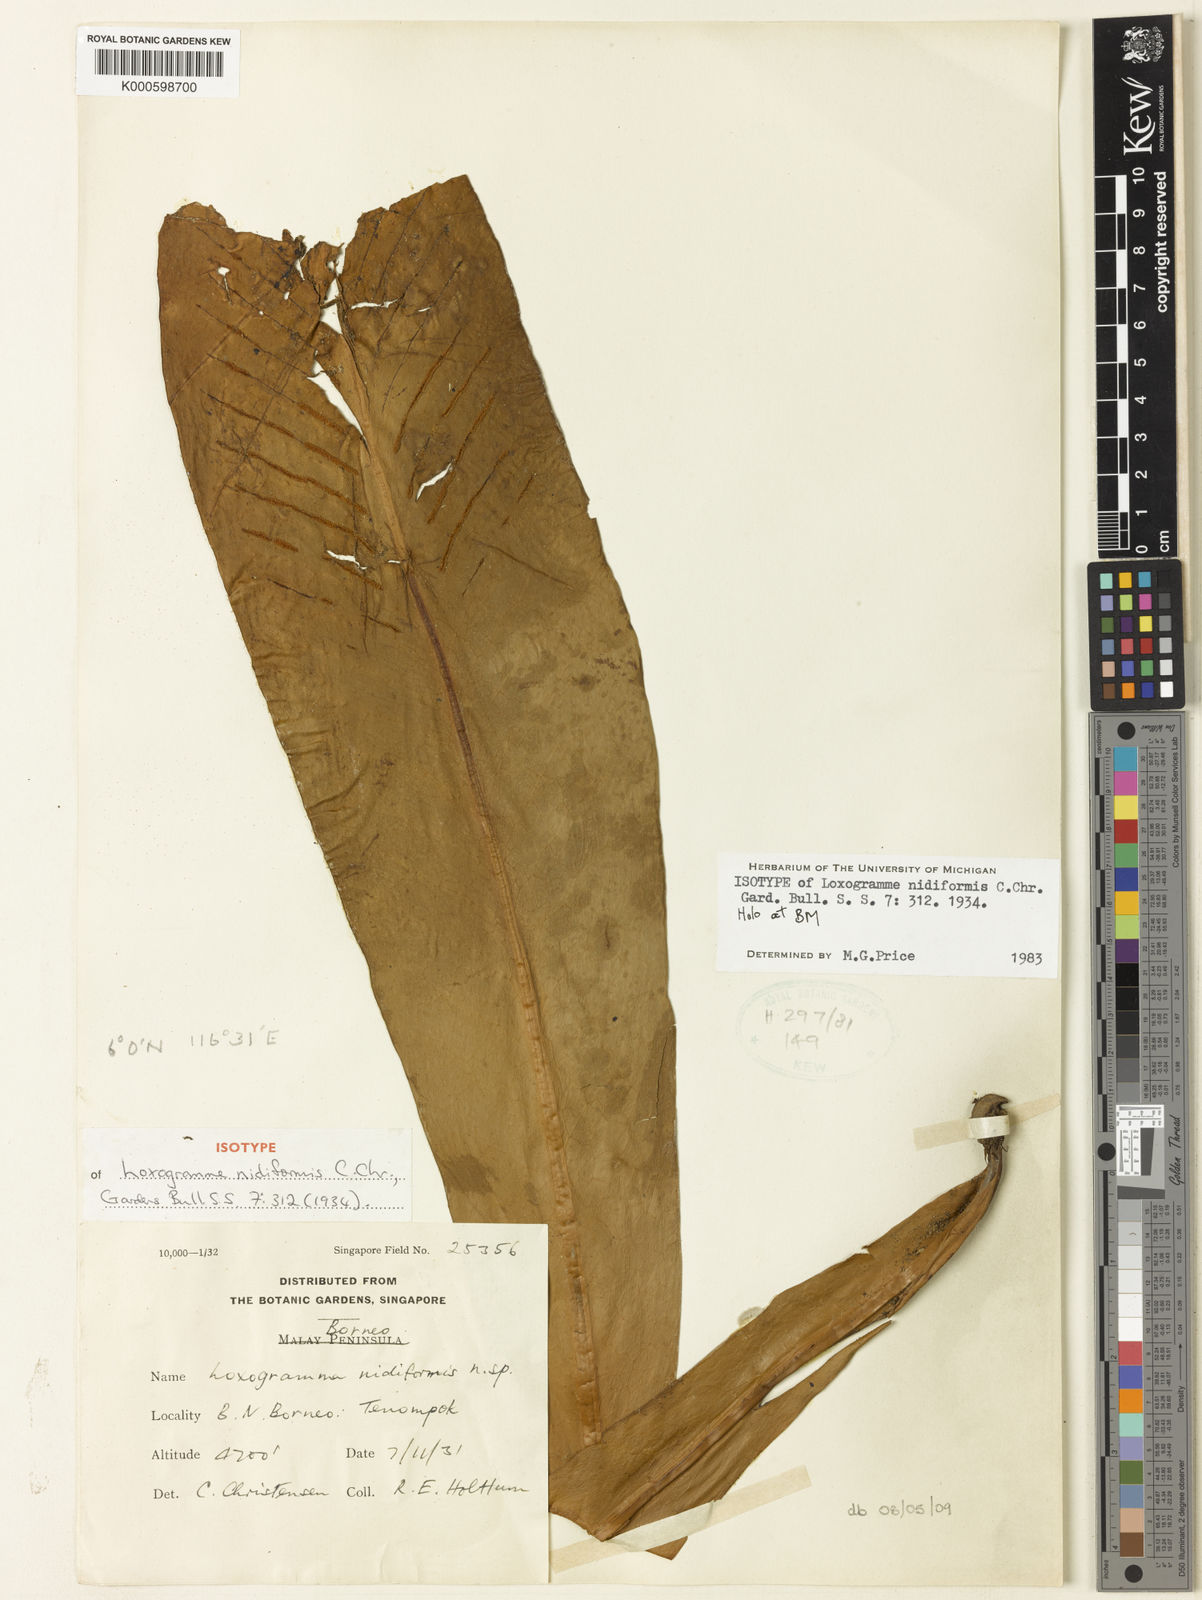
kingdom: Plantae
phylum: Tracheophyta
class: Polypodiopsida
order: Polypodiales
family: Polypodiaceae
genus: Loxogramme
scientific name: Loxogramme nidiformis
